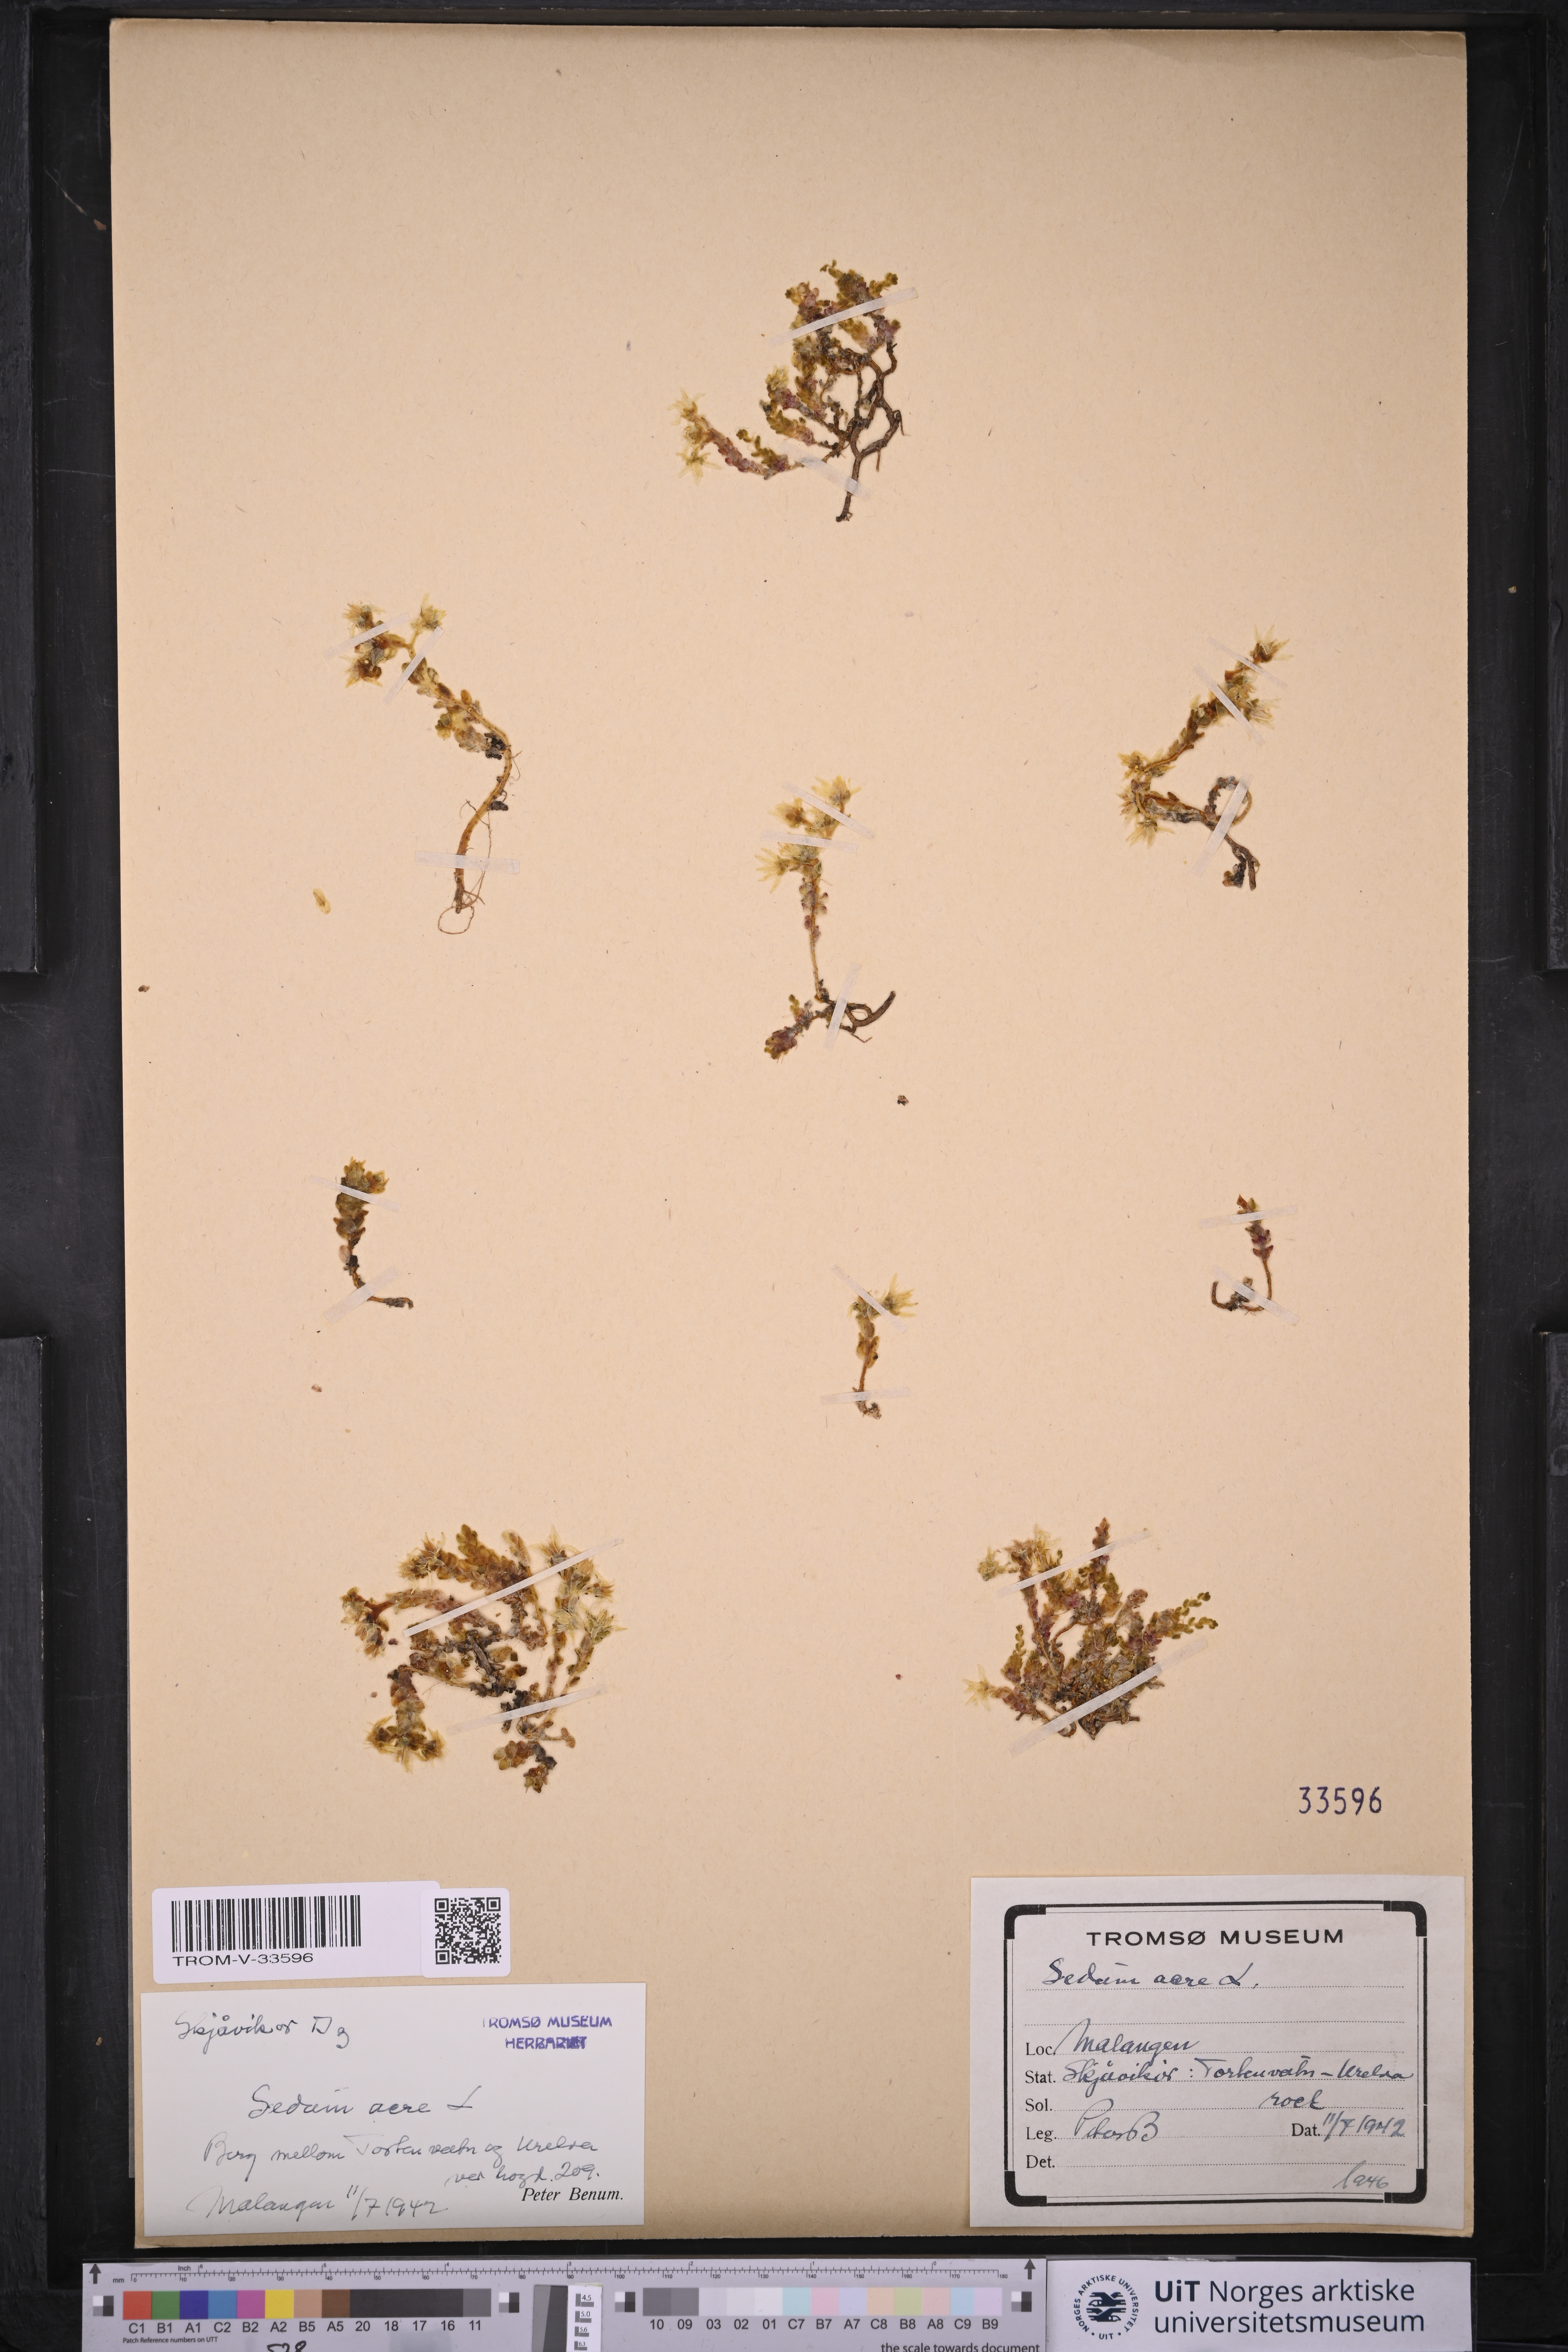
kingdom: Plantae
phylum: Tracheophyta
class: Magnoliopsida
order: Saxifragales
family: Crassulaceae
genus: Sedum
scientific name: Sedum acre
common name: Biting stonecrop
